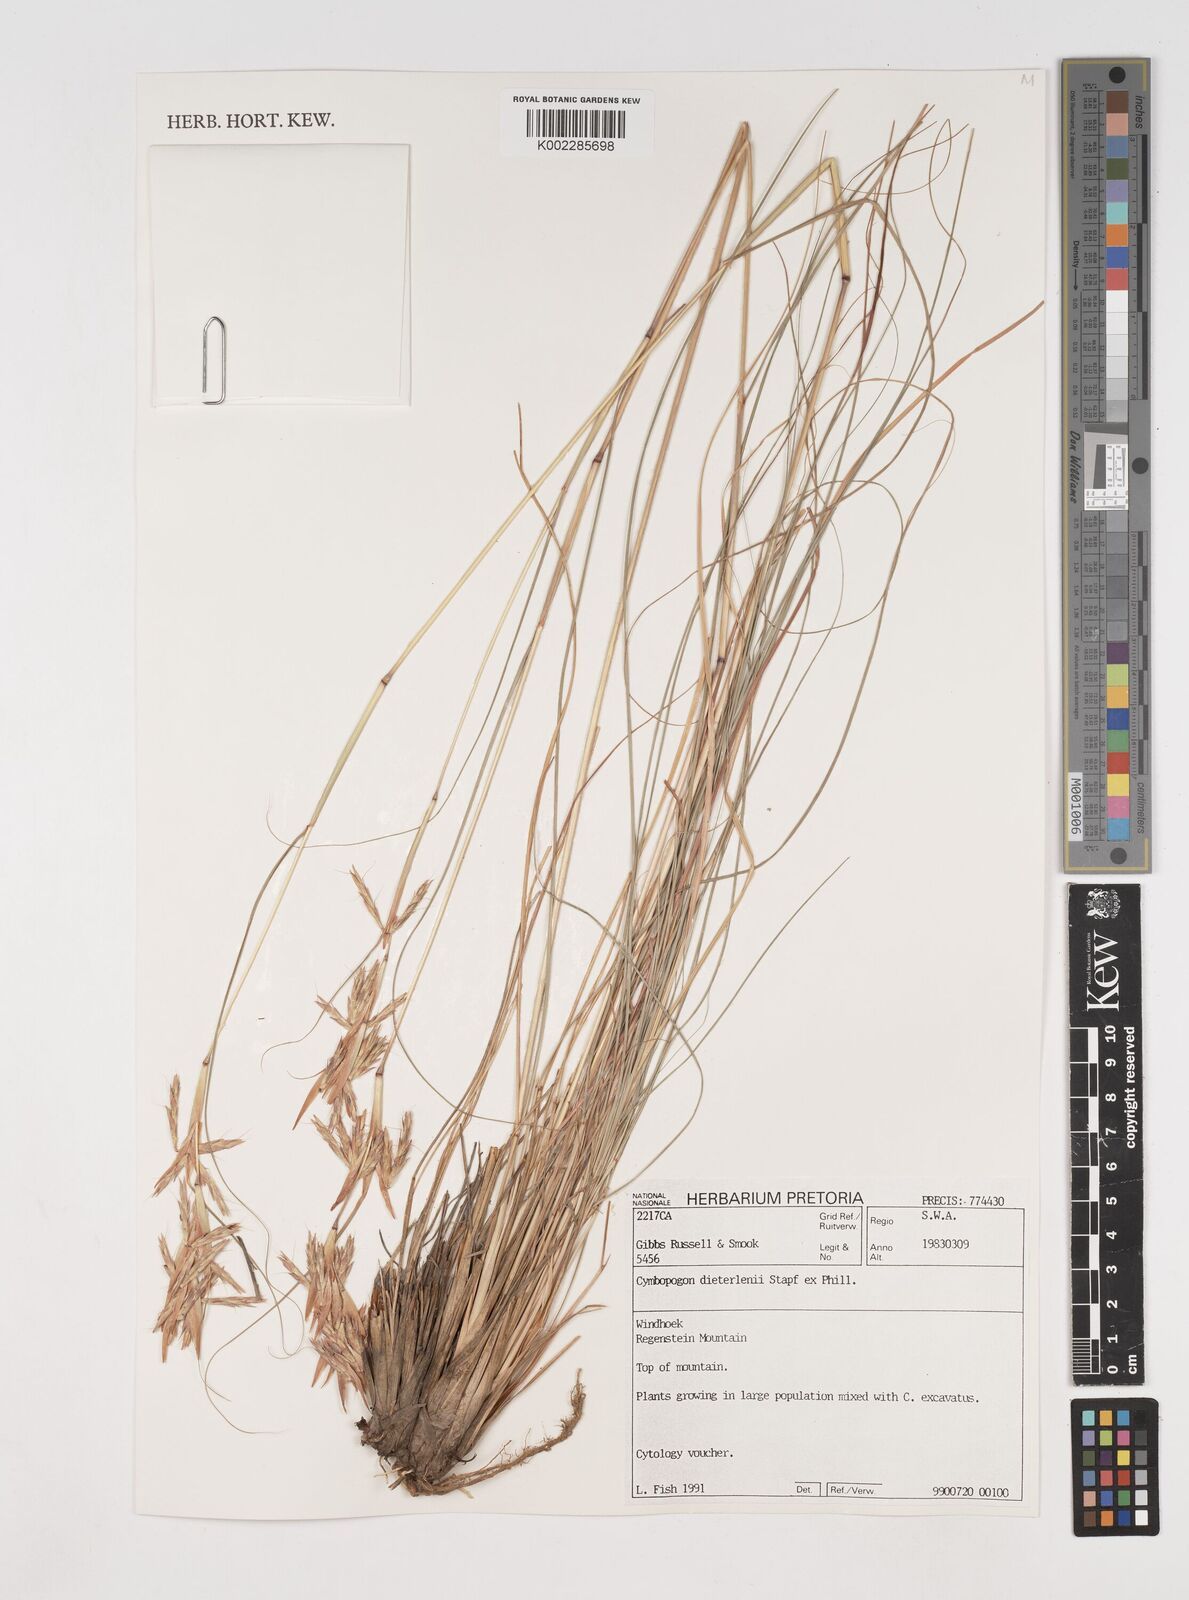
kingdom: Plantae
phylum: Tracheophyta
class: Liliopsida
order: Poales
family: Poaceae
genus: Cymbopogon
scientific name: Cymbopogon dieterlenii
